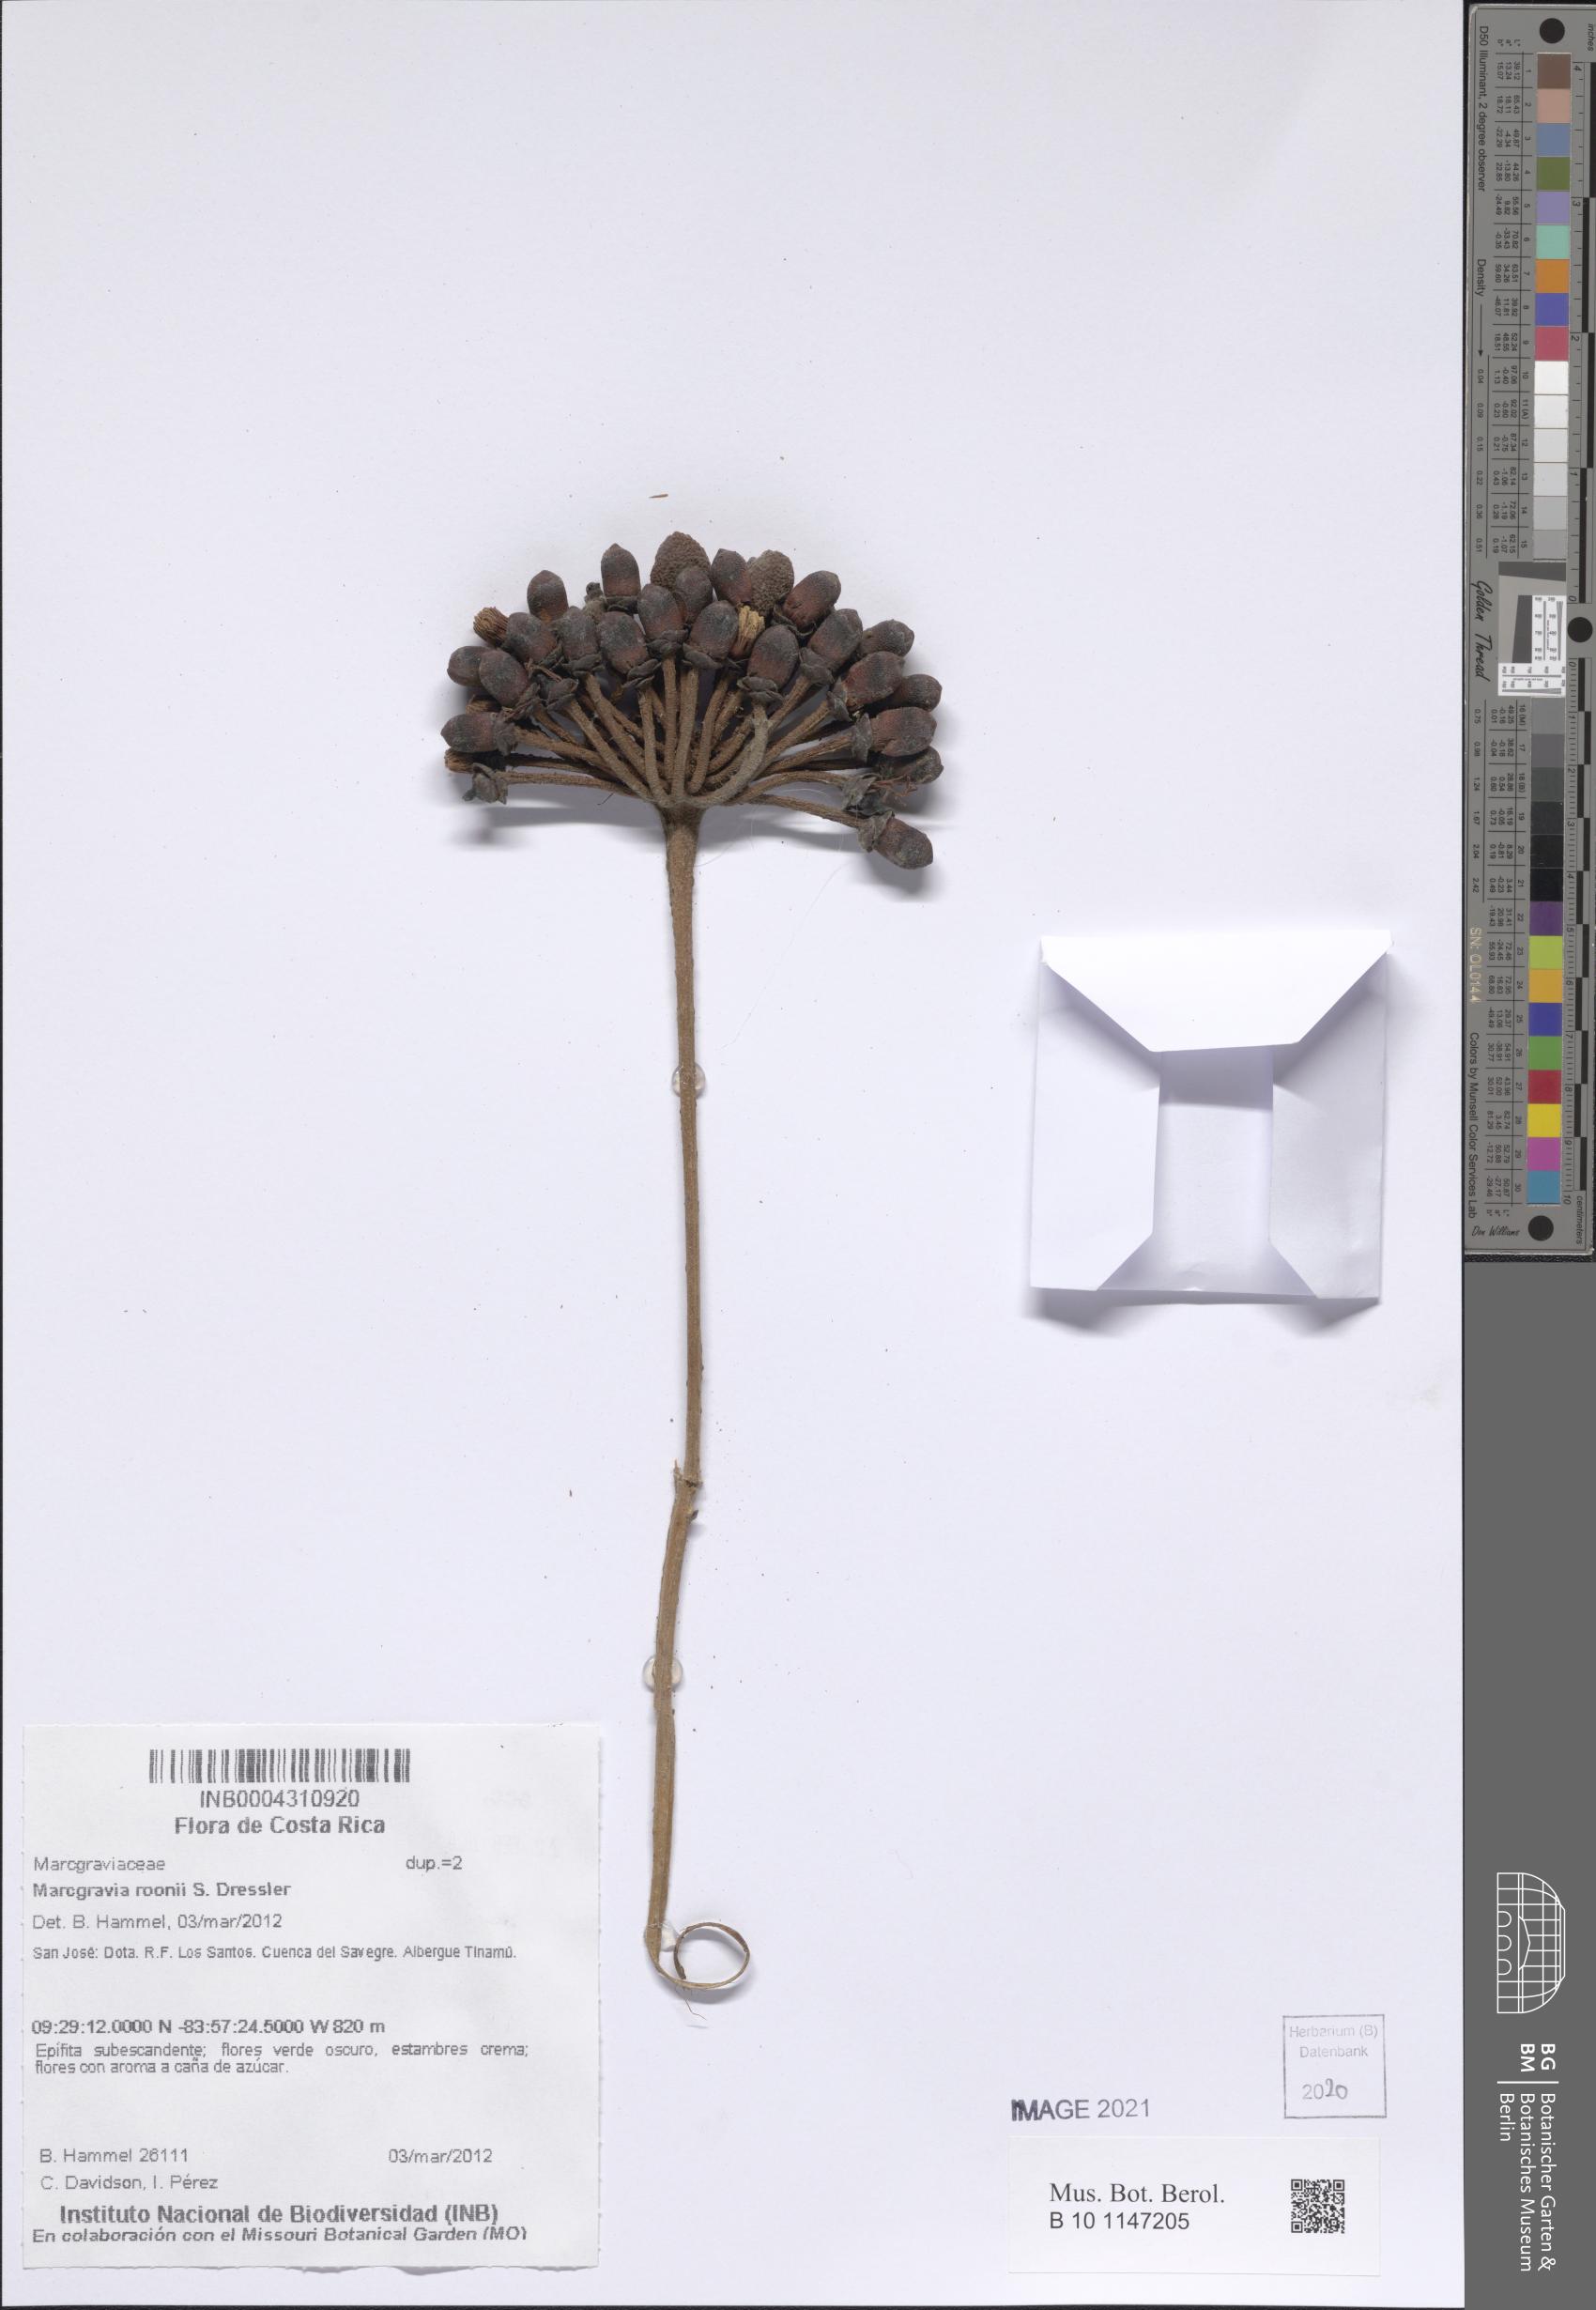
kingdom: Plantae
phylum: Tracheophyta
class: Magnoliopsida
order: Ericales
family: Marcgraviaceae
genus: Marcgravia
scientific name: Marcgravia roonii
